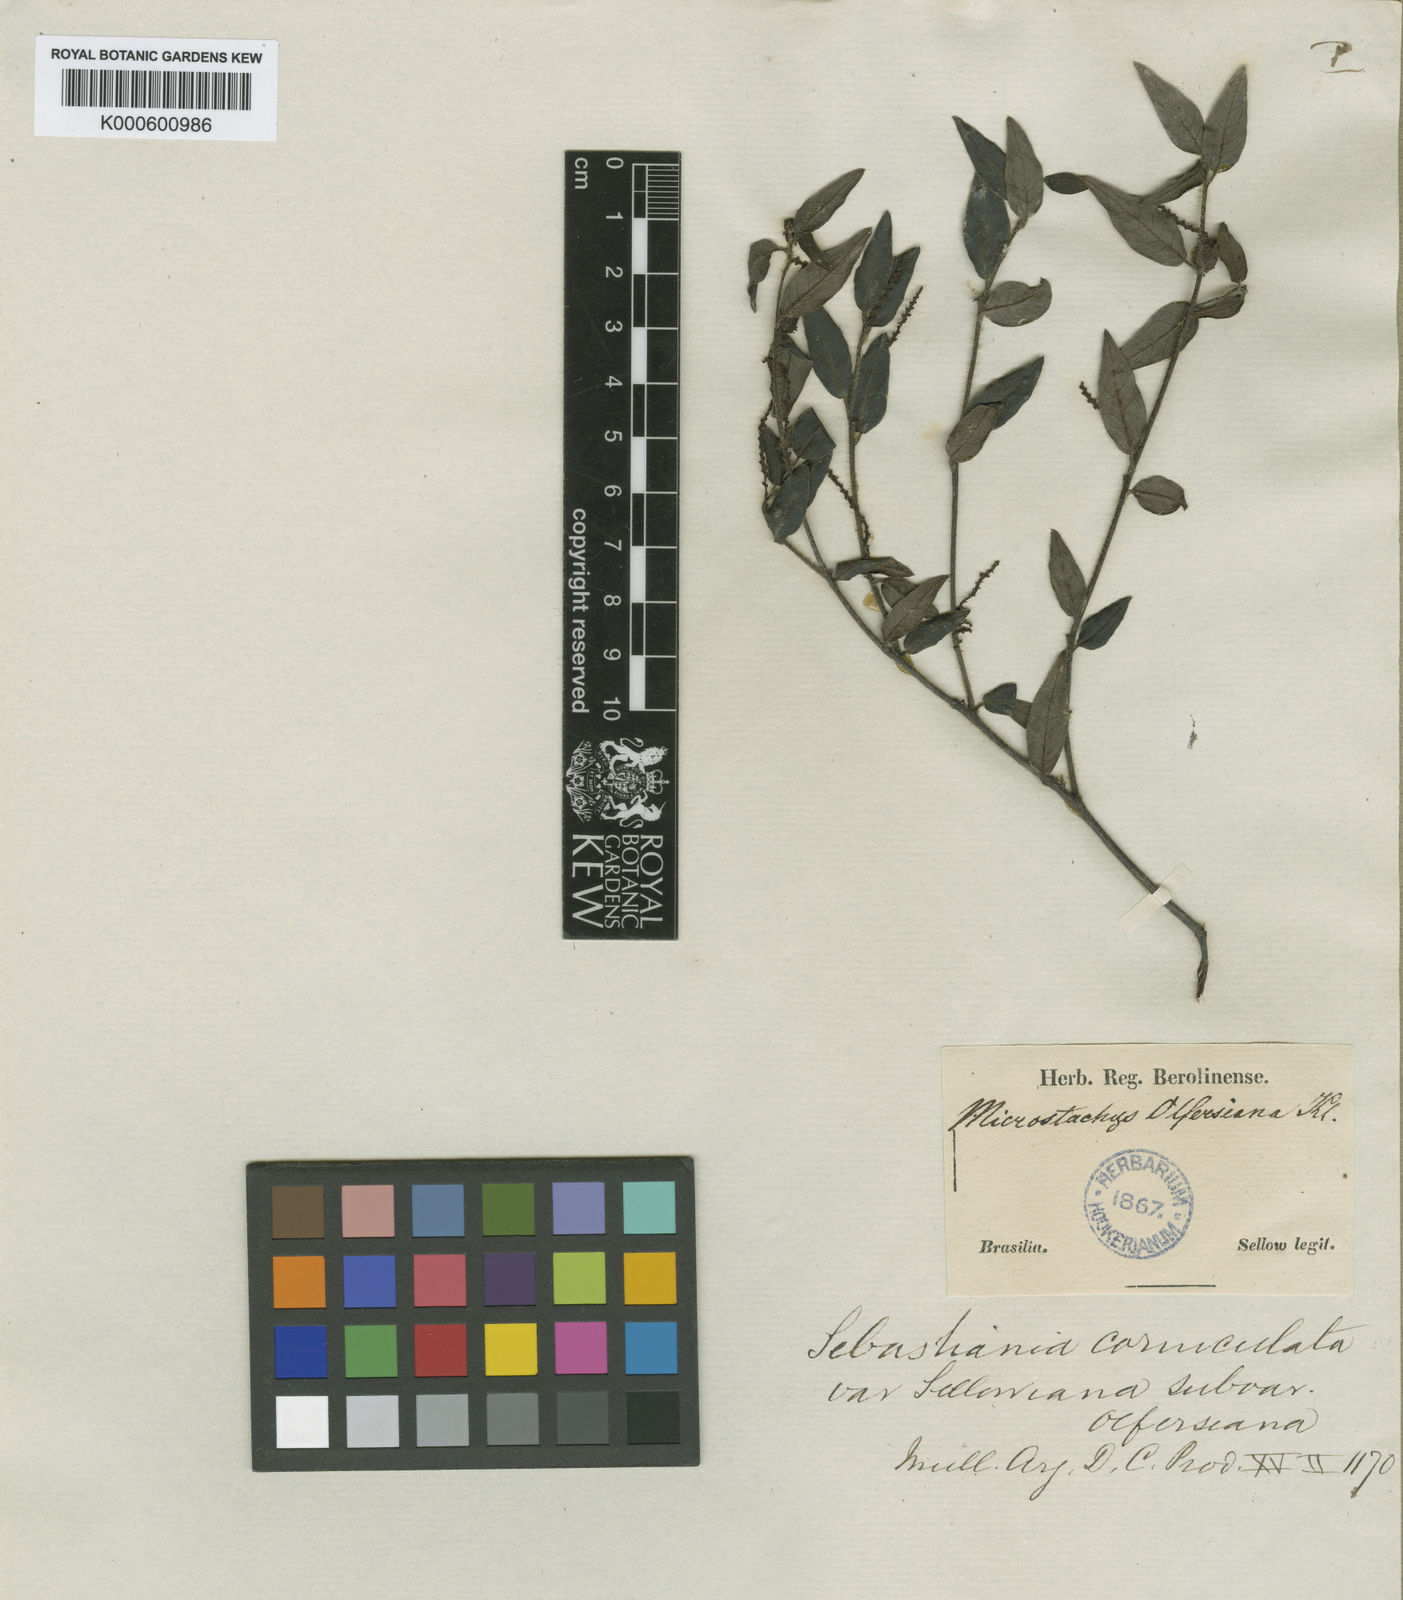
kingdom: Plantae
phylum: Tracheophyta
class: Magnoliopsida
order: Malpighiales
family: Euphorbiaceae
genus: Sebastiania
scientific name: Sebastiania
